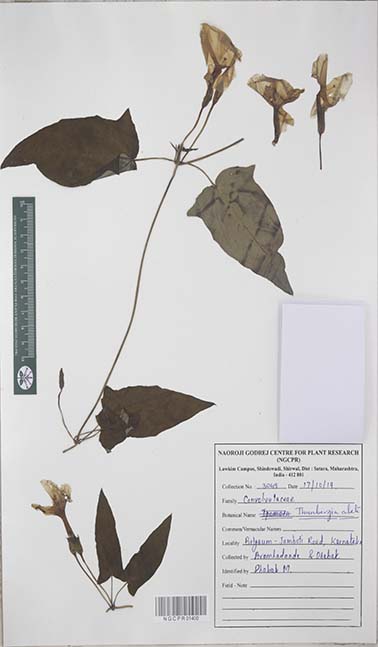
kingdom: Plantae
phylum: Tracheophyta
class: Magnoliopsida
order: Lamiales
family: Acanthaceae
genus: Thunbergia
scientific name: Thunbergia alata
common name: Blackeyed susan vine
